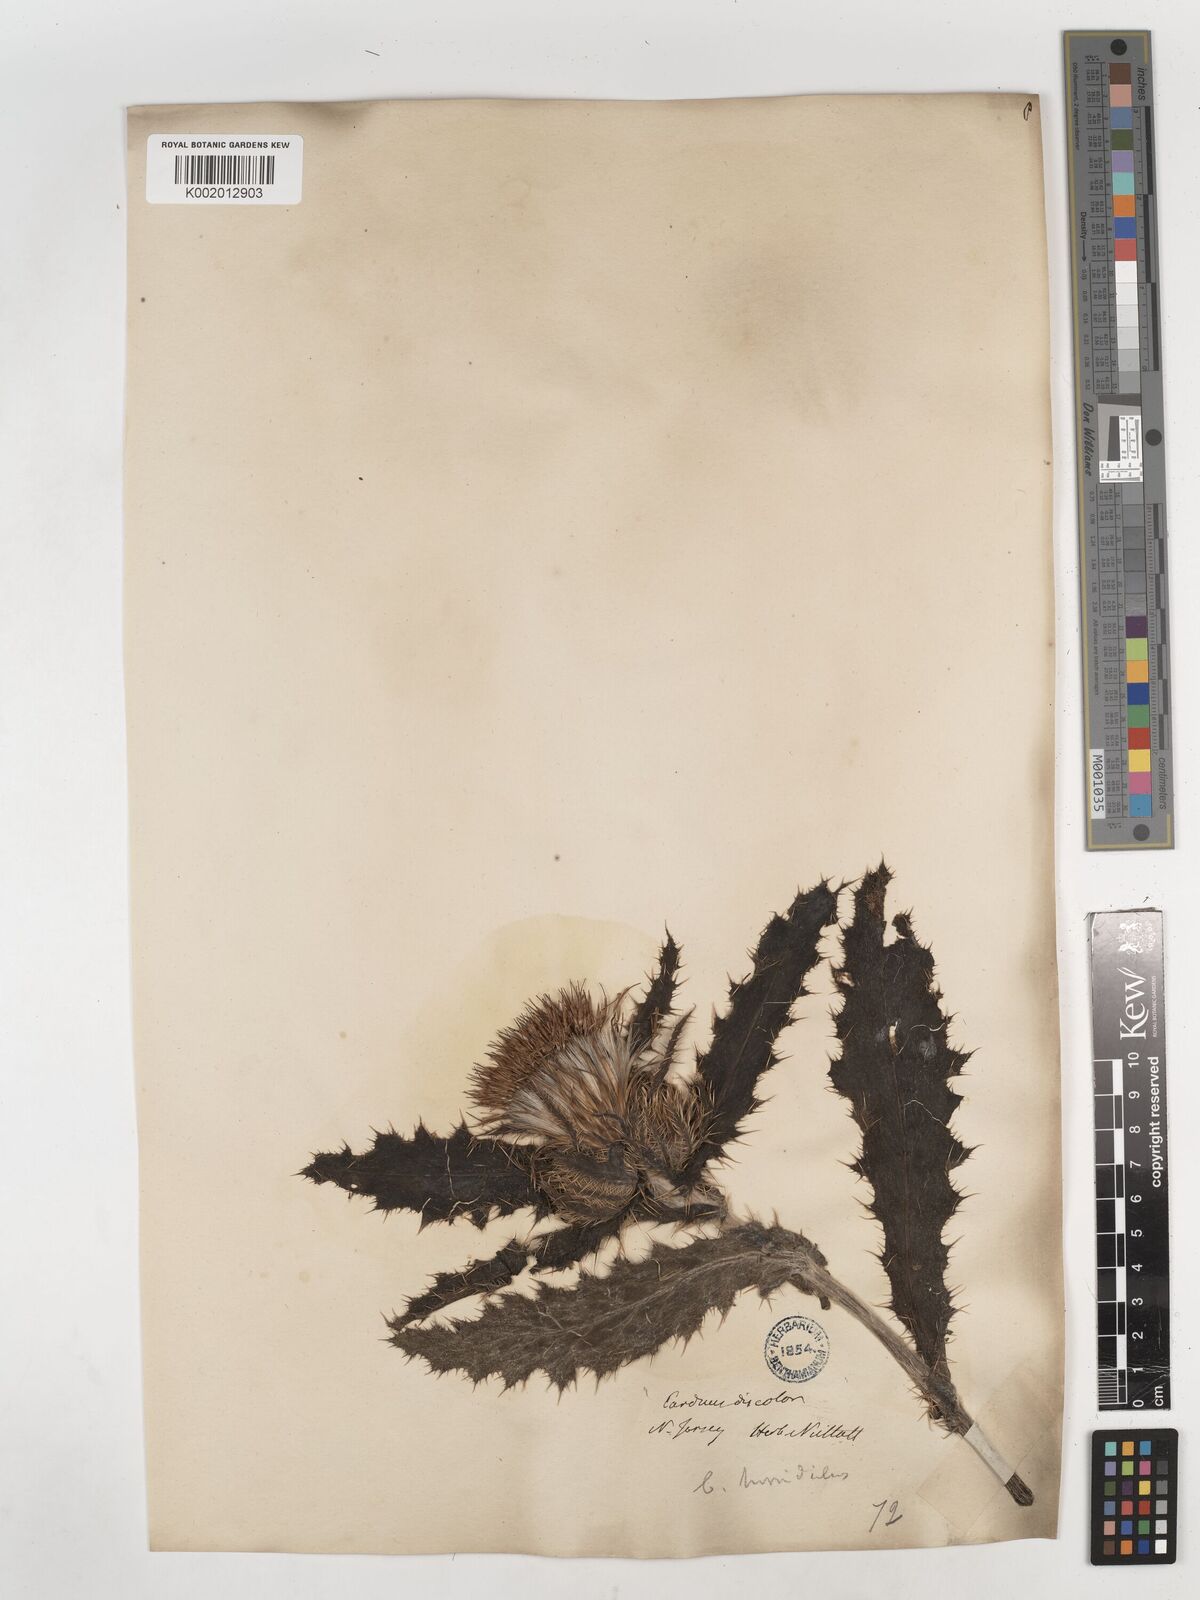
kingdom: Plantae
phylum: Tracheophyta
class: Magnoliopsida
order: Asterales
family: Asteraceae
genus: Cirsium
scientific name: Cirsium horridulum
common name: Bristly thistle
